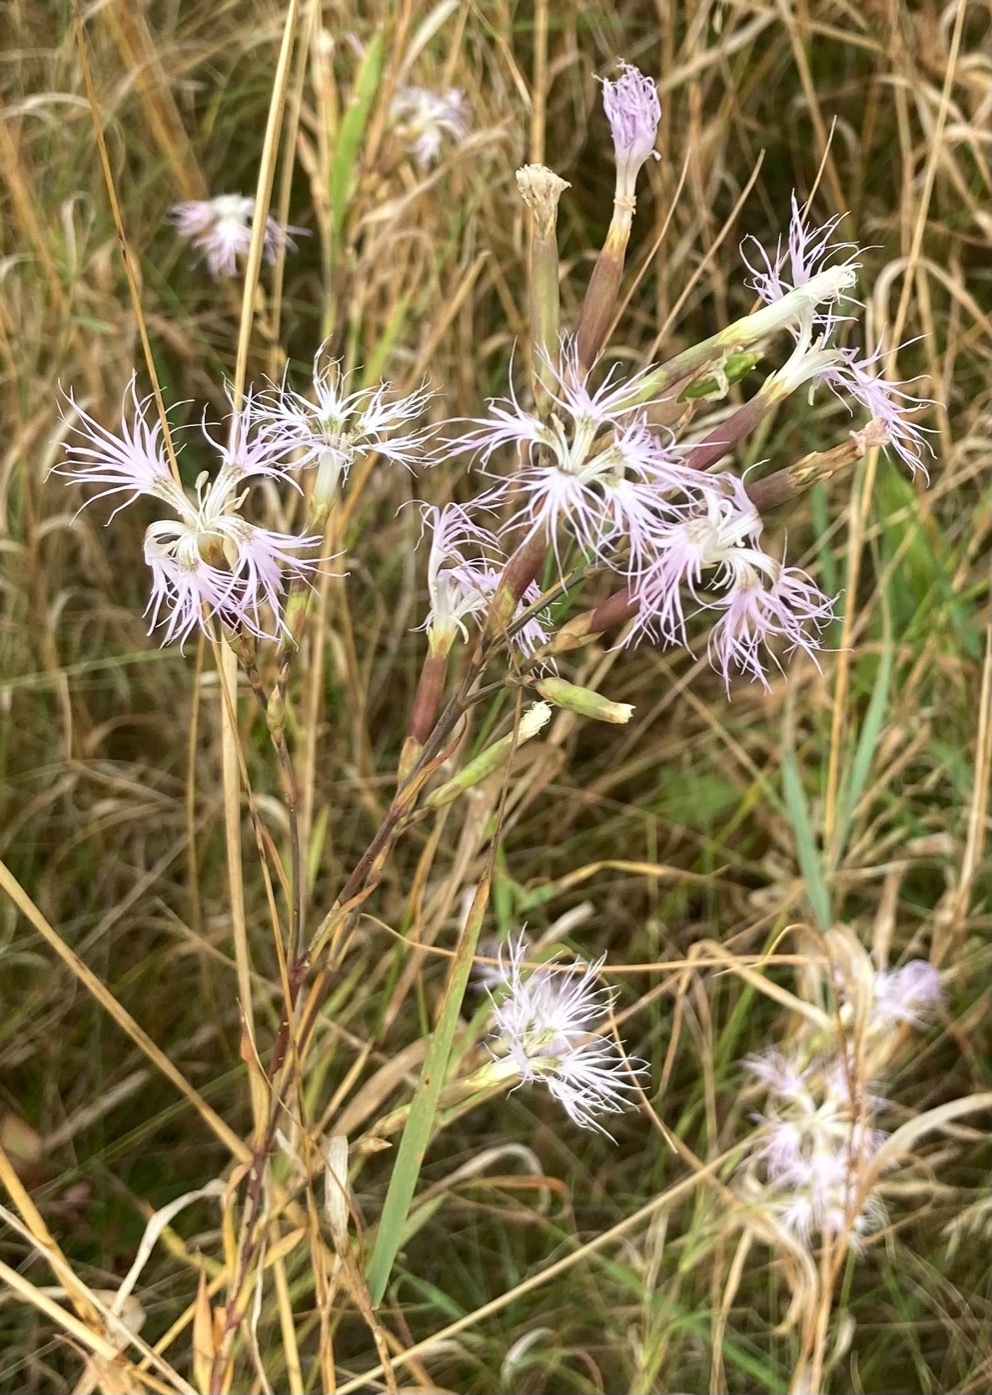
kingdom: Plantae
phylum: Tracheophyta
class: Magnoliopsida
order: Caryophyllales
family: Caryophyllaceae
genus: Dianthus
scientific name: Dianthus superbus
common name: Strand-nellike
